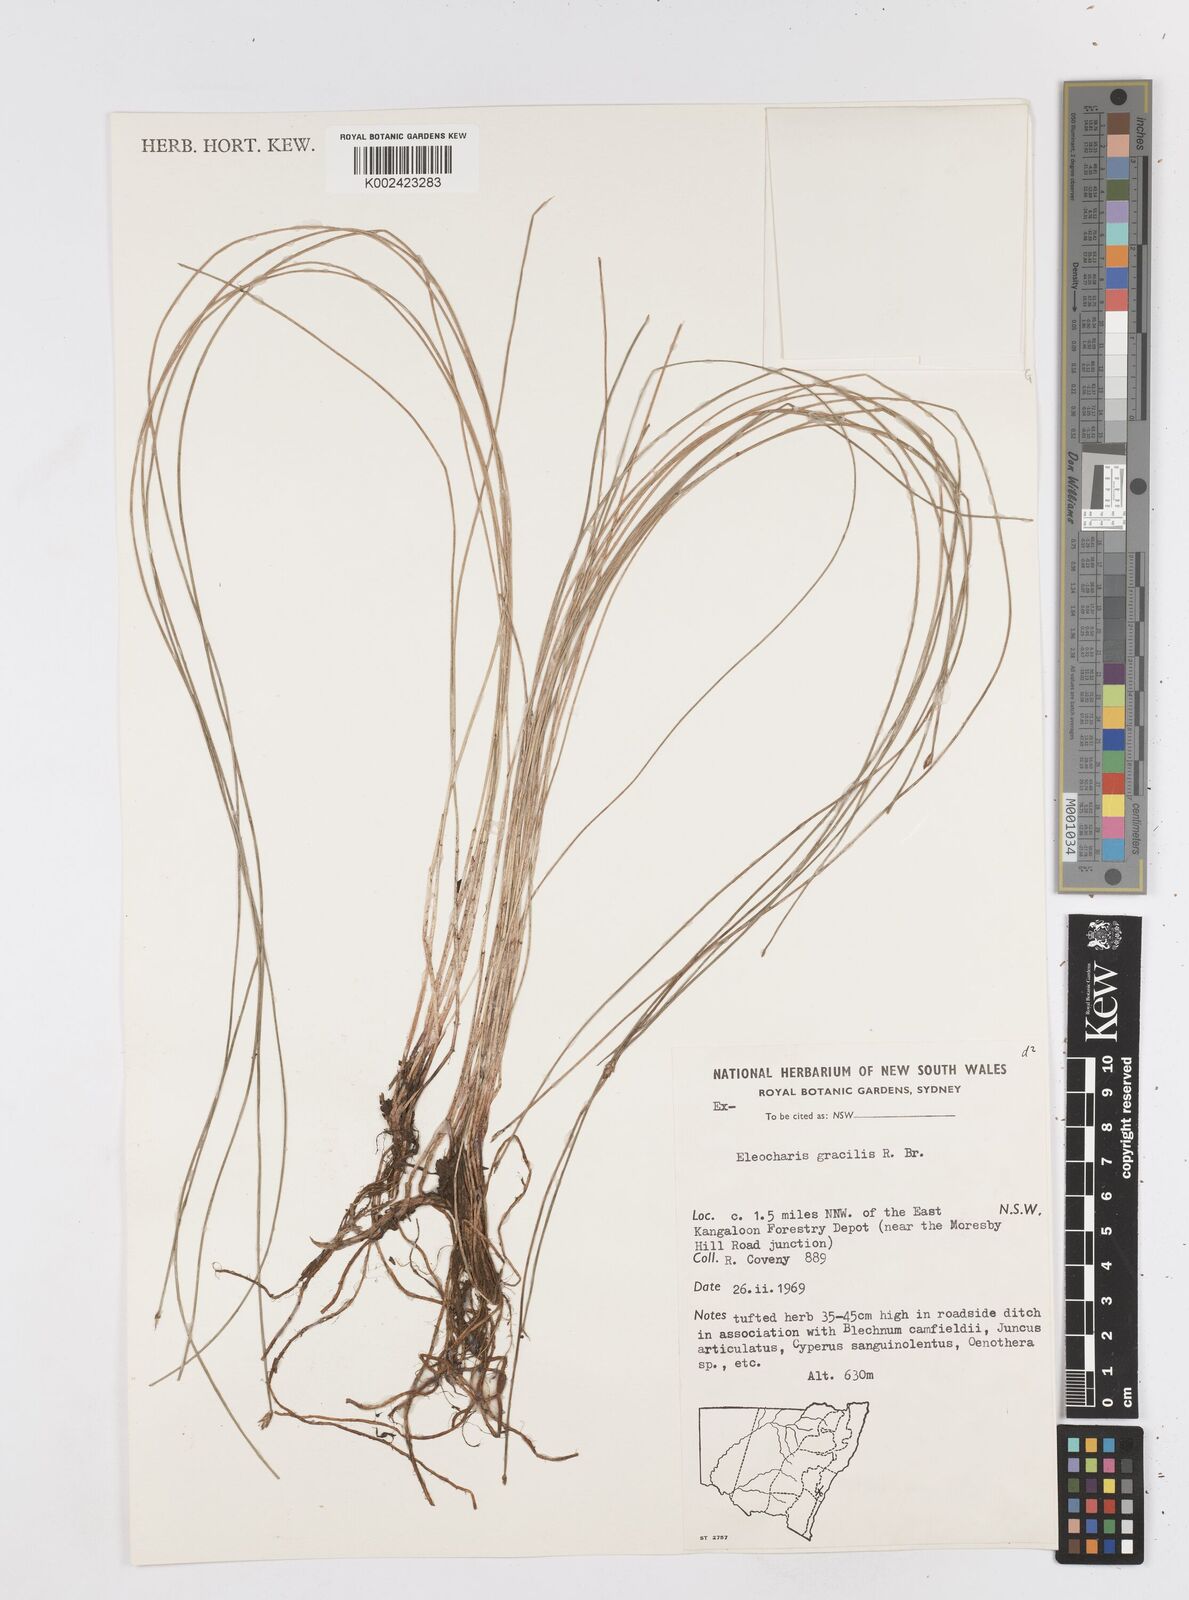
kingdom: Plantae
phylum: Tracheophyta
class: Liliopsida
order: Poales
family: Cyperaceae
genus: Eleocharis
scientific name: Eleocharis multicaulis
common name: Many-stalked spike-rush
